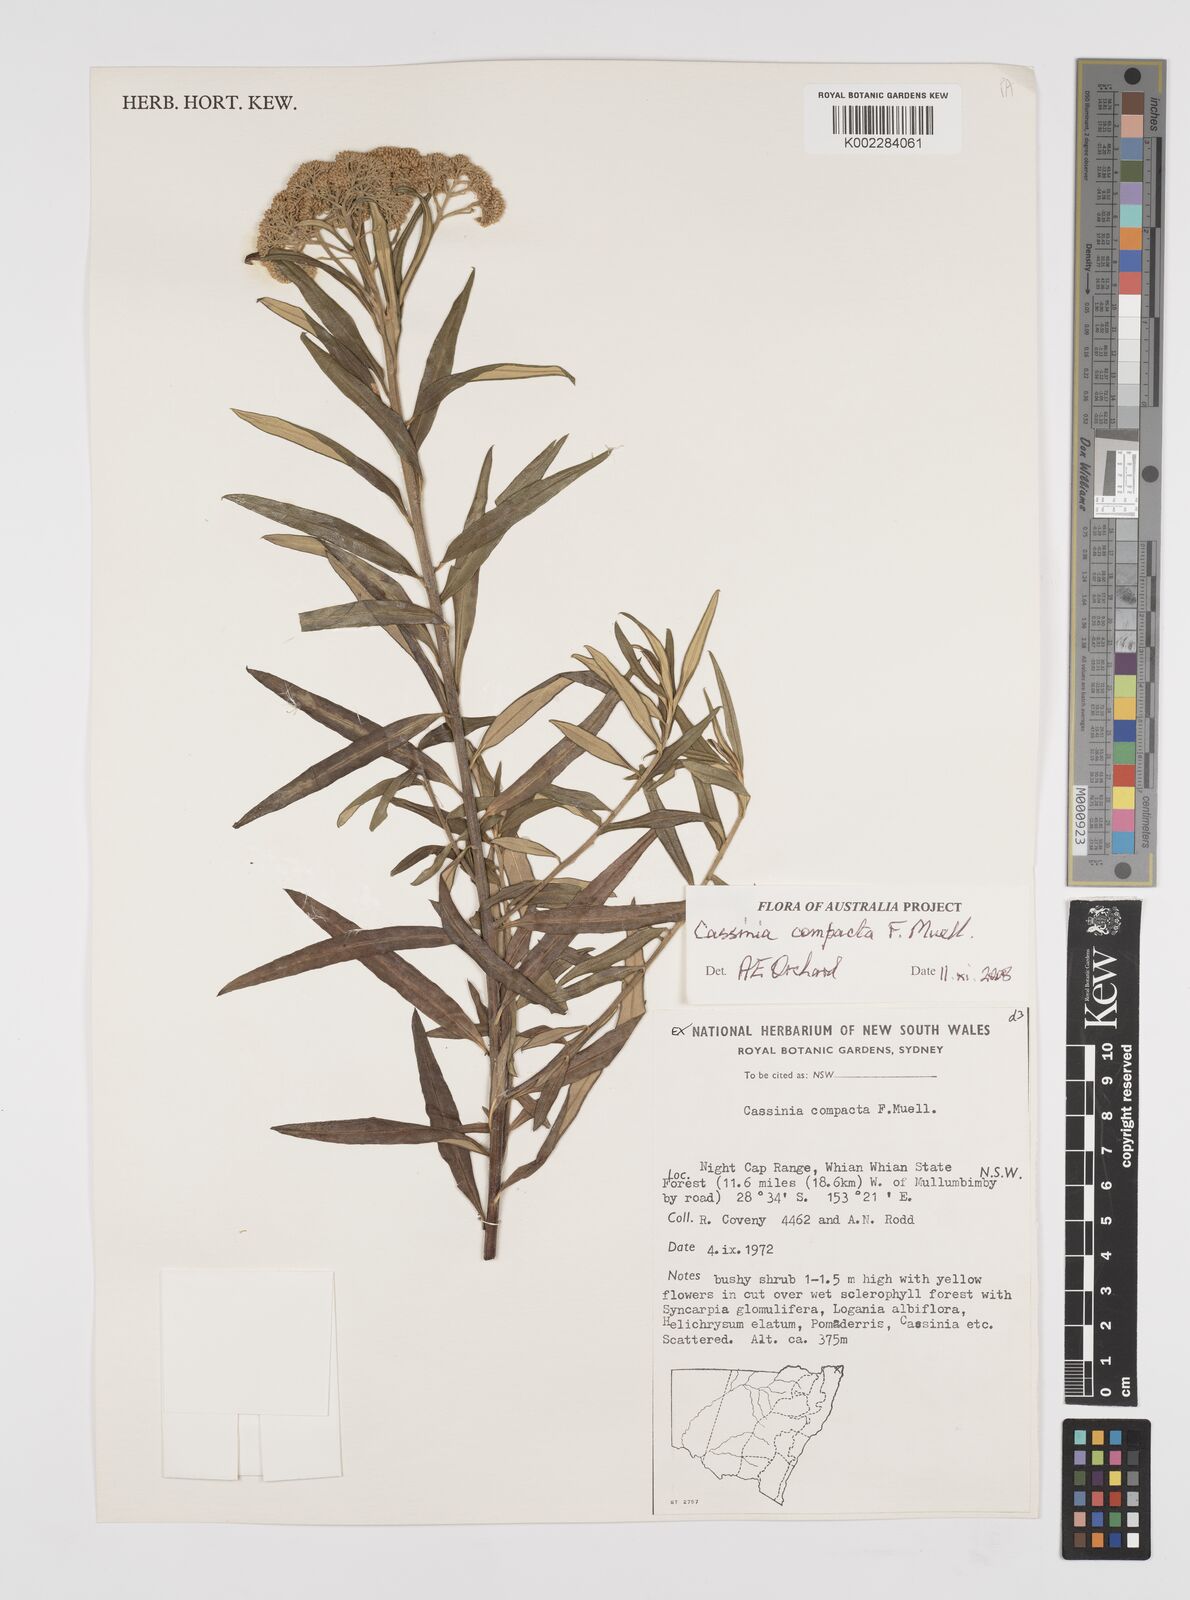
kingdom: Plantae
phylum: Tracheophyta
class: Magnoliopsida
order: Asterales
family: Asteraceae
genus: Cassinia
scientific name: Cassinia compacta
